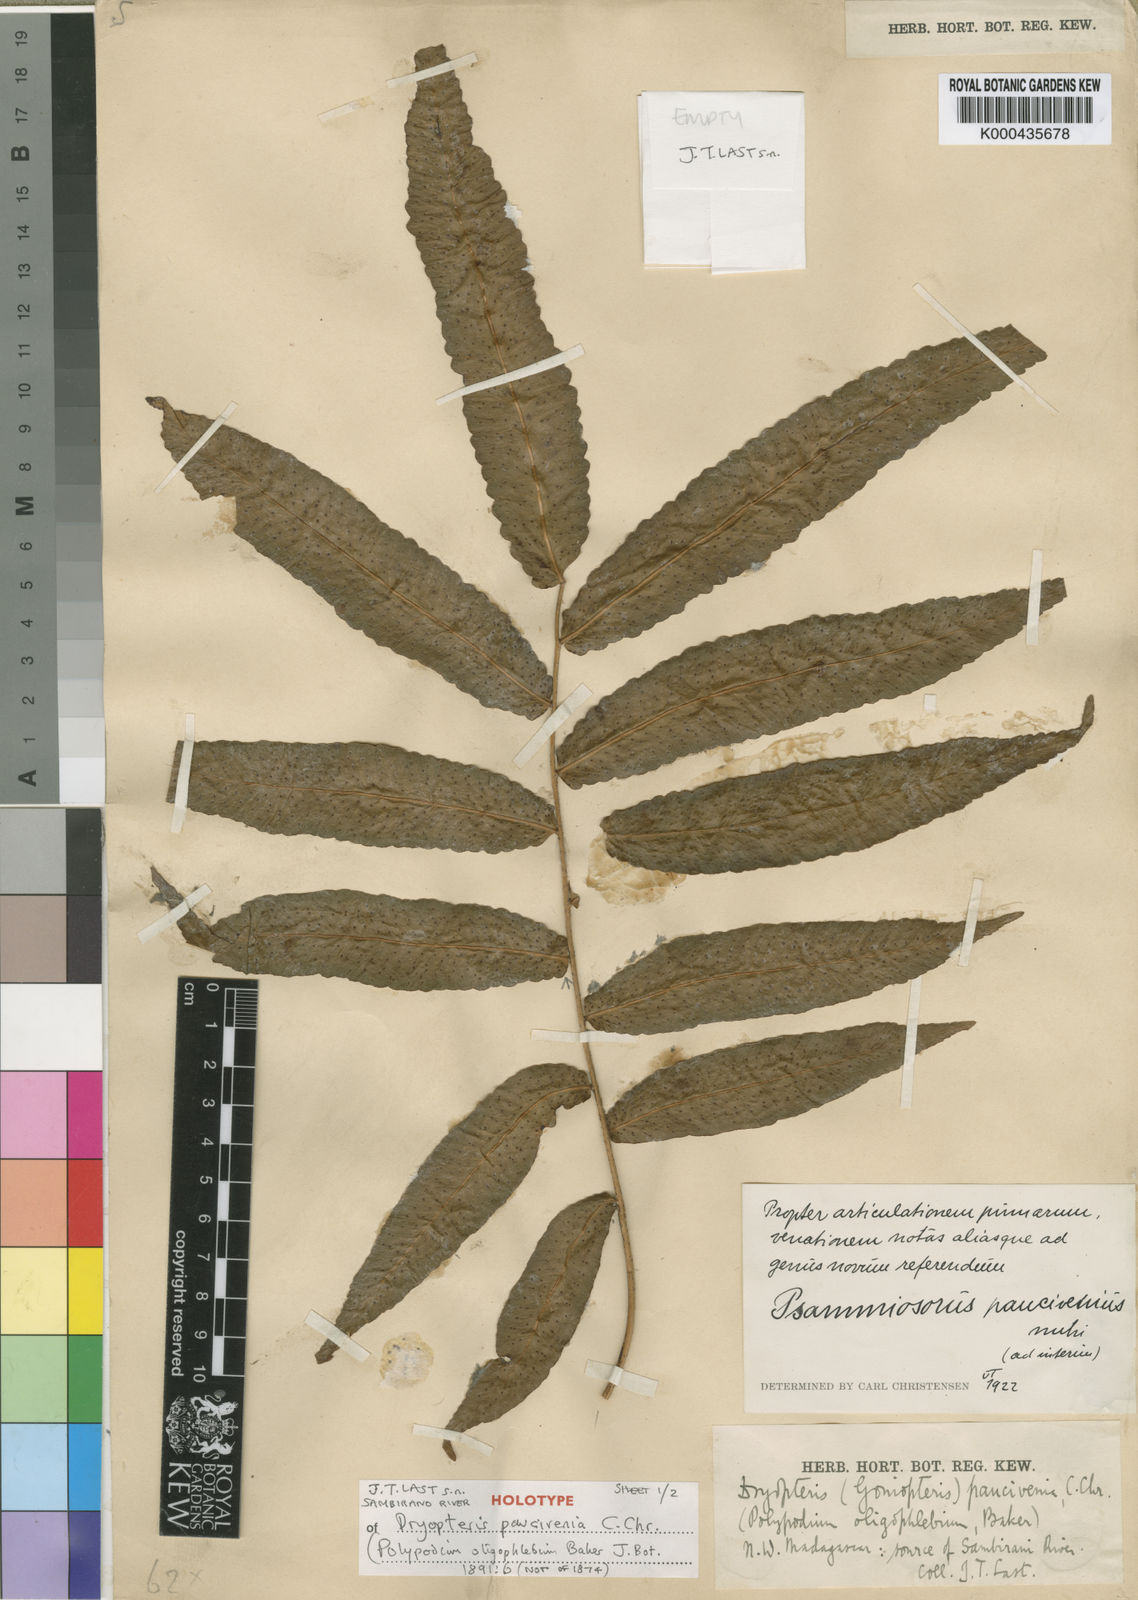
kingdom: Plantae
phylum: Tracheophyta
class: Polypodiopsida
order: Polypodiales
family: Tectariaceae
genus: Arthropteris
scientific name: Arthropteris paucivenia
